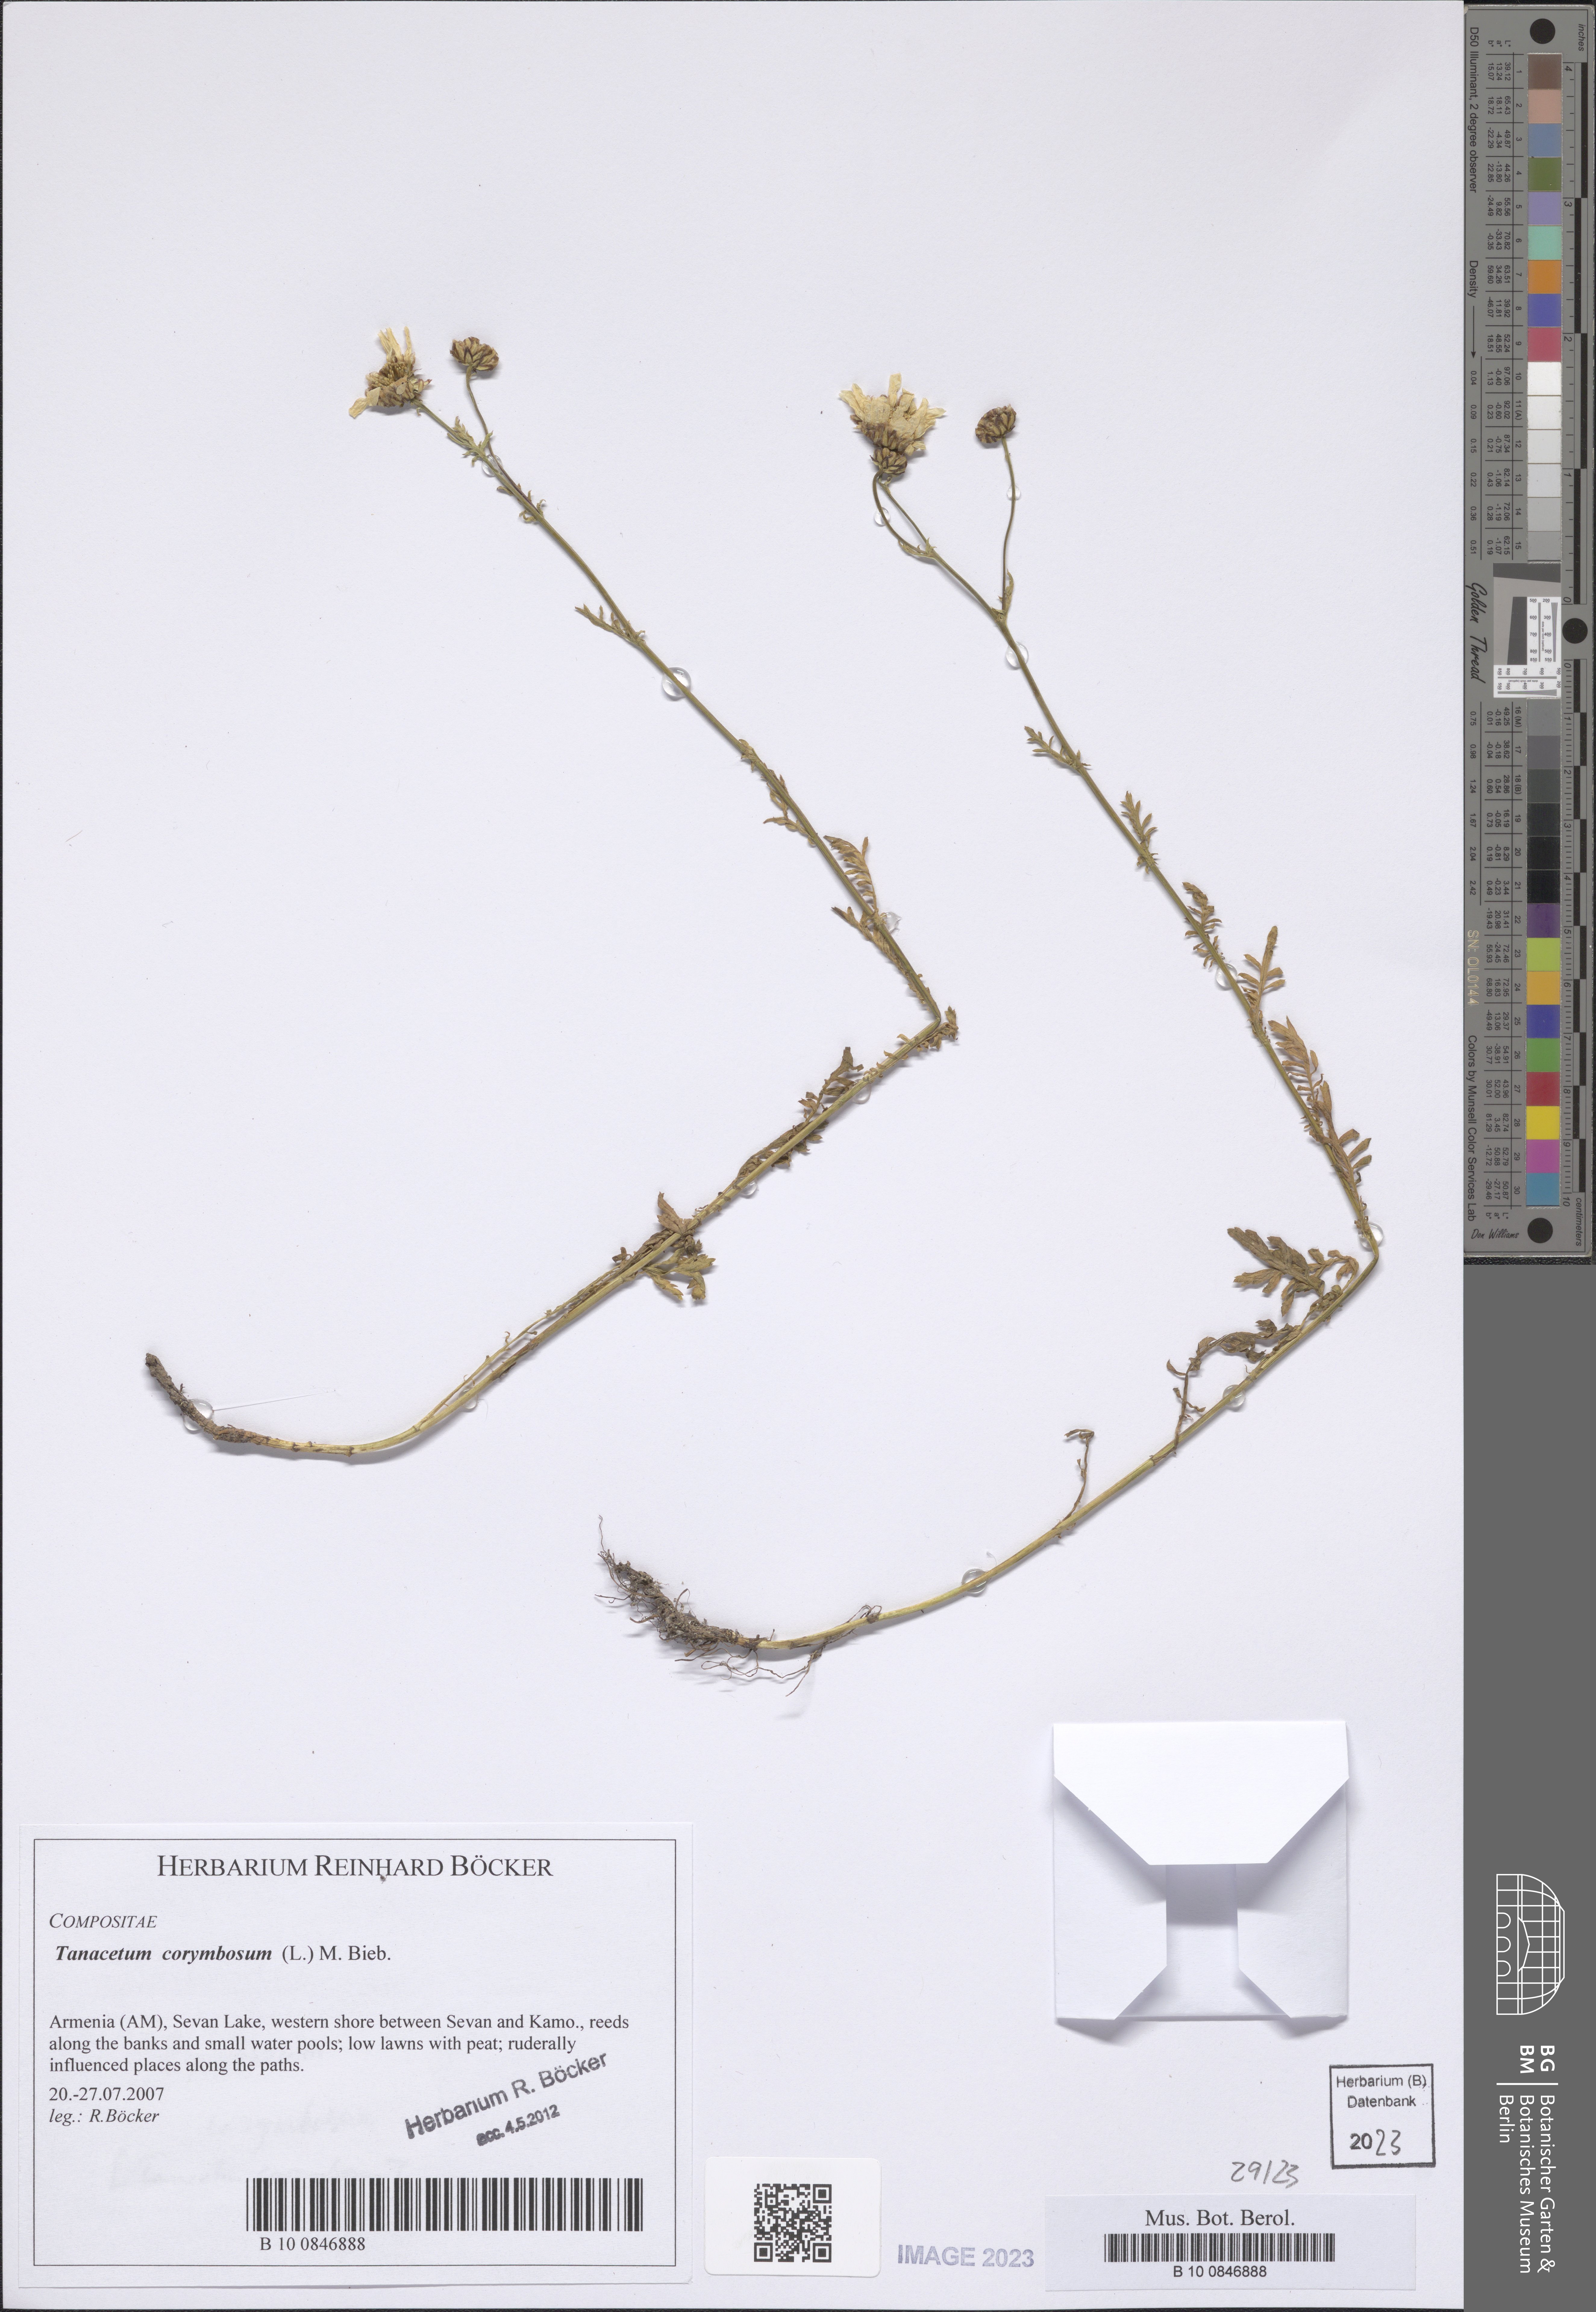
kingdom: Plantae
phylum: Tracheophyta
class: Magnoliopsida
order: Asterales
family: Asteraceae
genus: Tanacetum
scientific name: Tanacetum corymbosum
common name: Scentless feverfew
